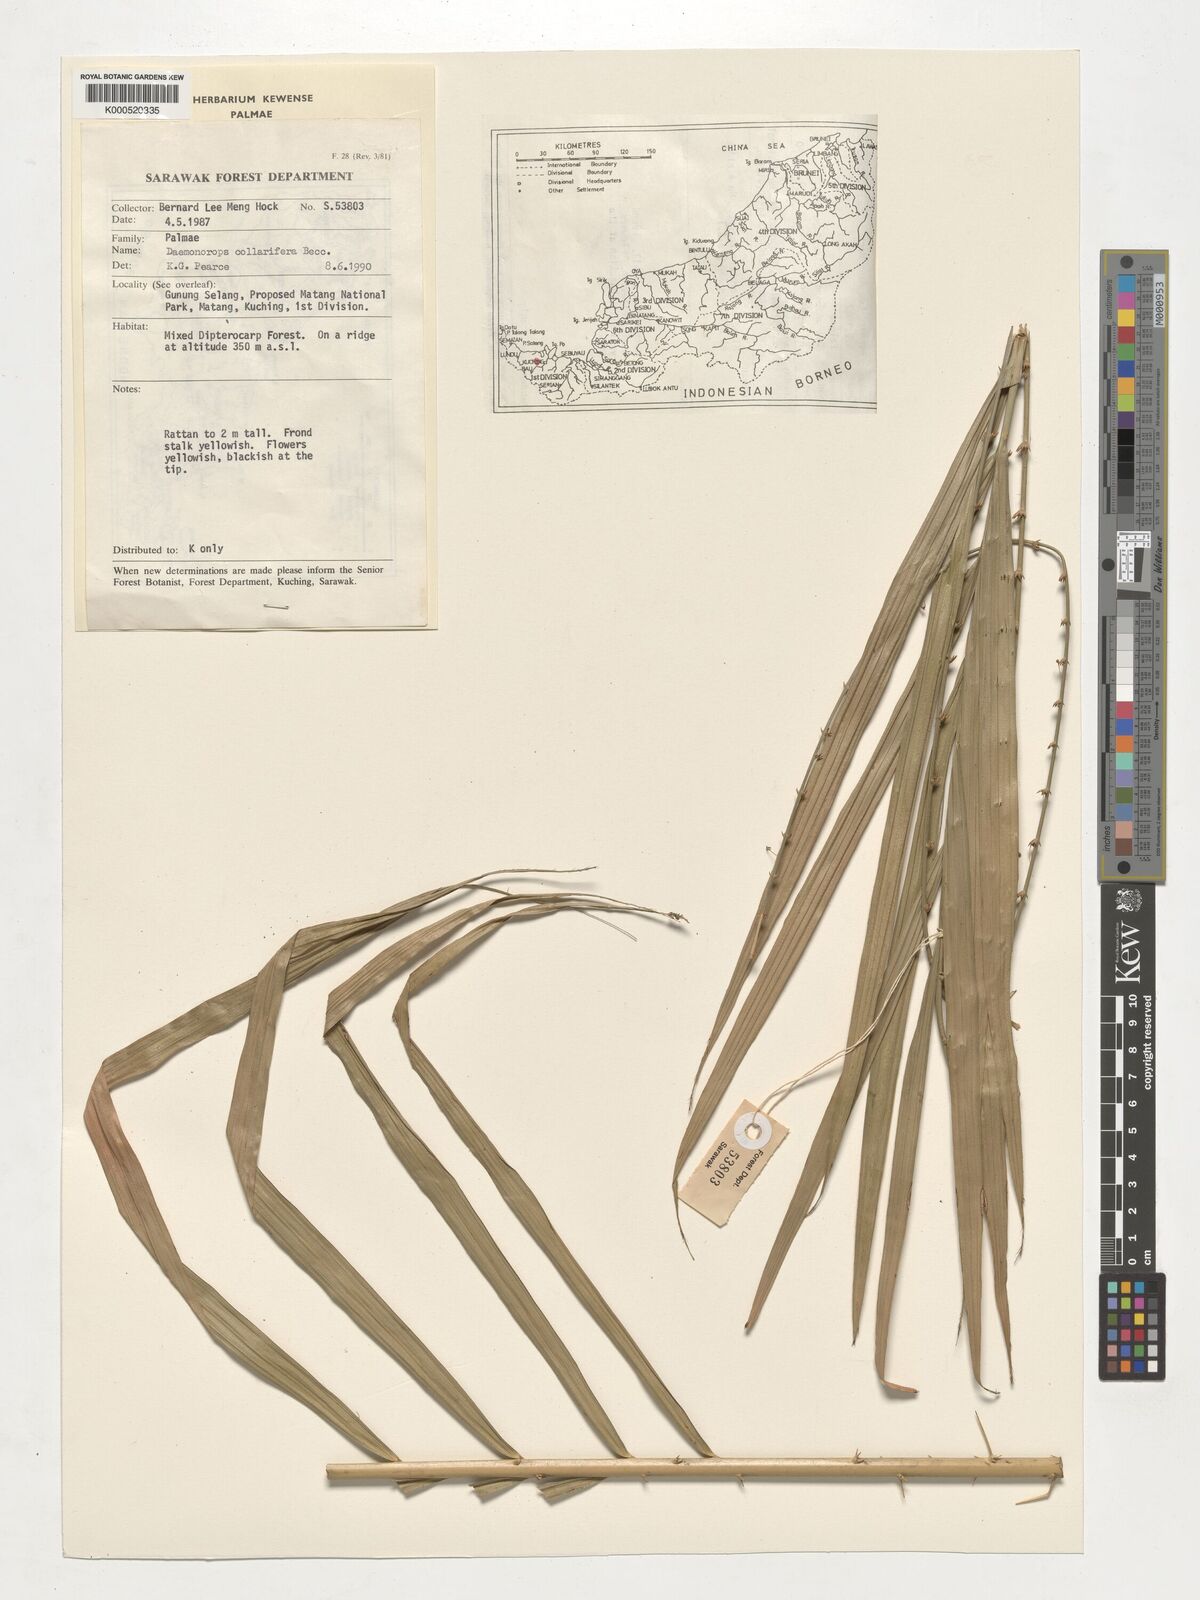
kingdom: Plantae
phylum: Tracheophyta
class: Liliopsida
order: Arecales
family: Arecaceae
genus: Calamus
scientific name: Calamus geniculatus
